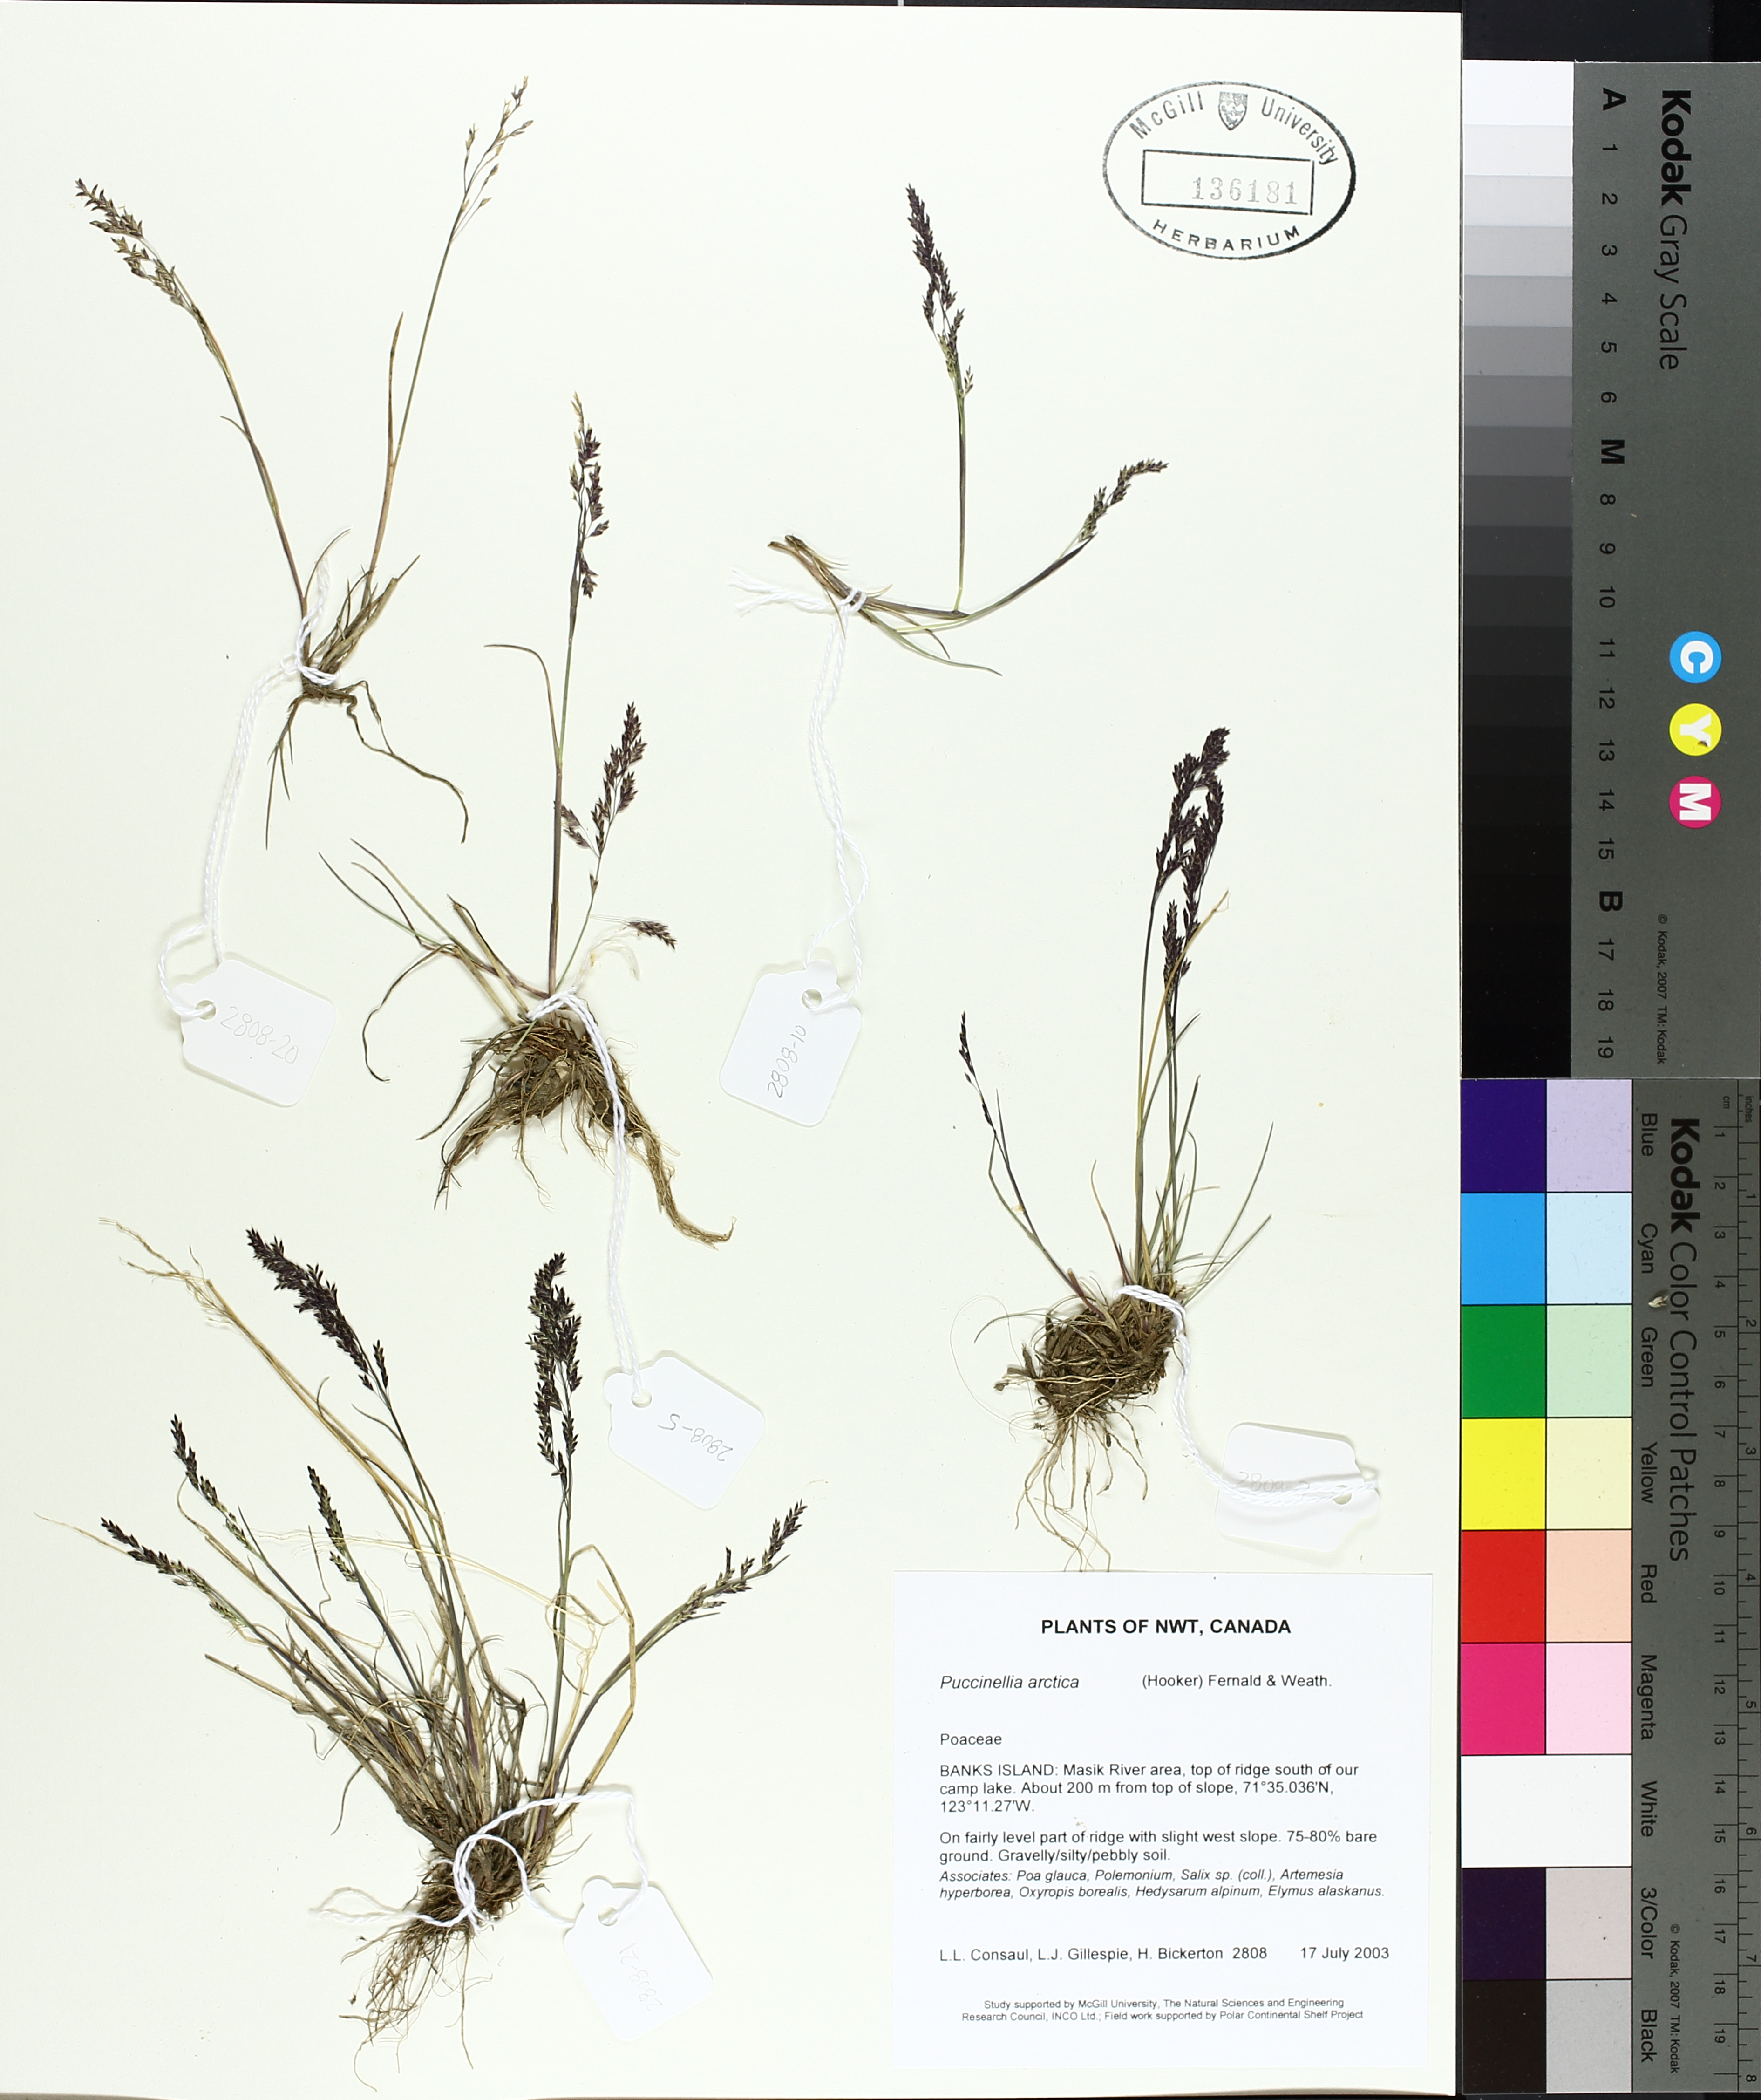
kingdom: Plantae
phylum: Tracheophyta
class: Liliopsida
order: Poales
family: Poaceae
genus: Puccinellia
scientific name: Puccinellia arctica
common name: Arctic alkali grass
